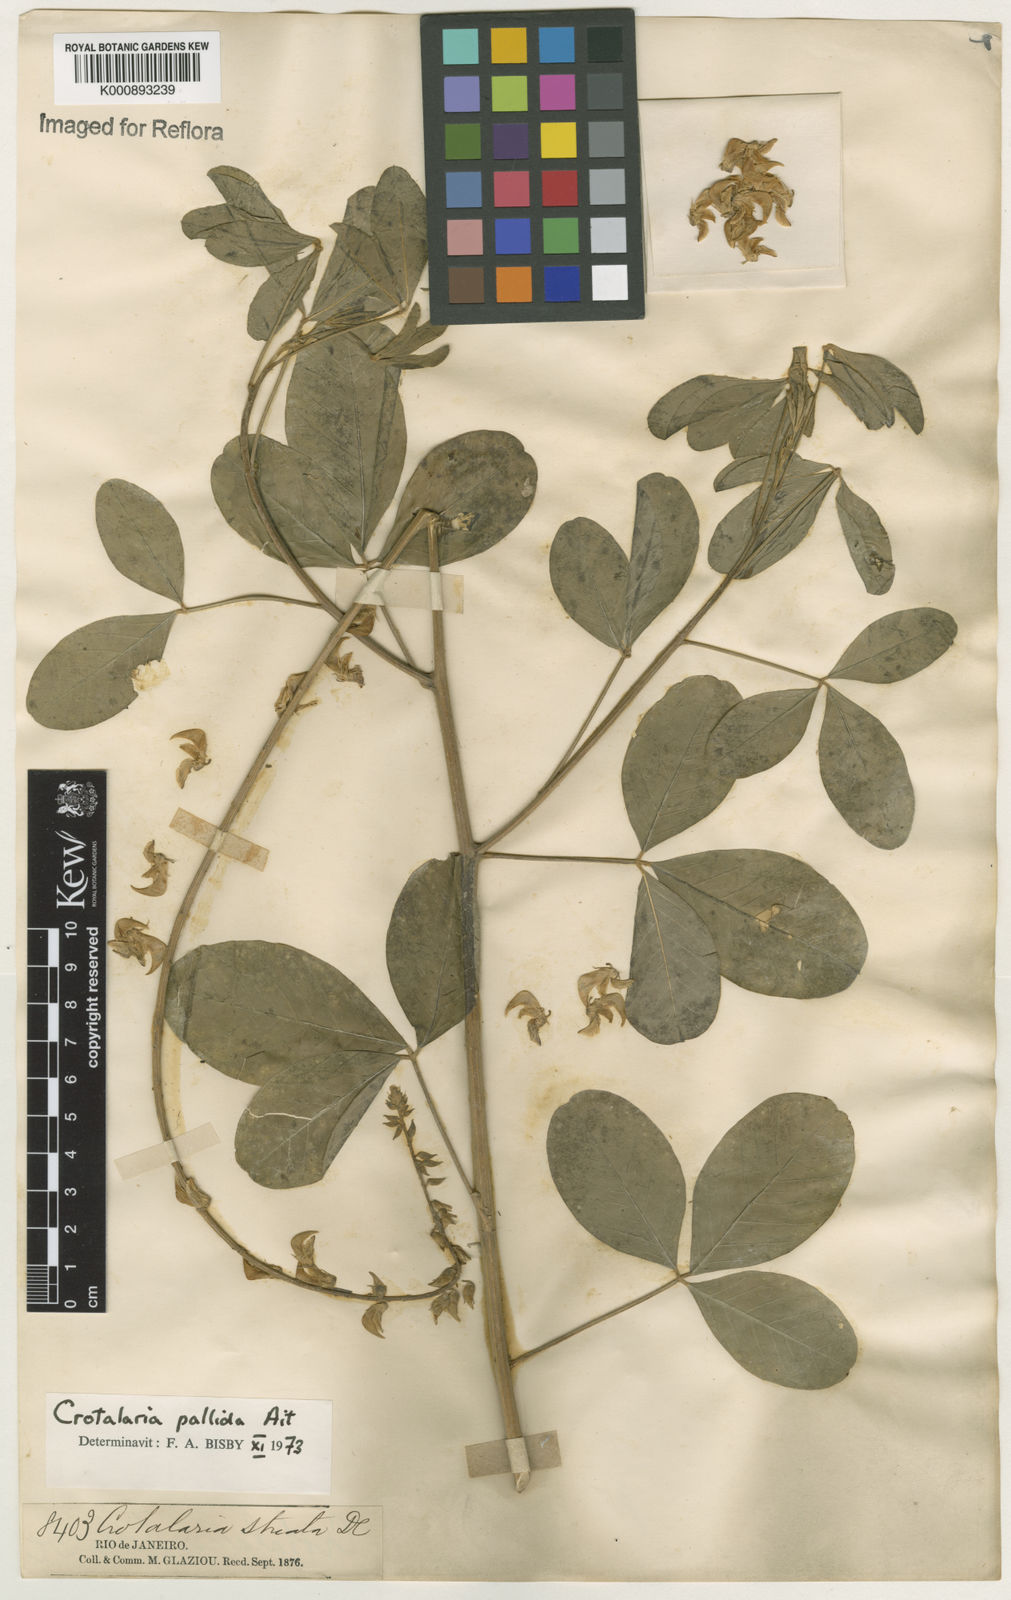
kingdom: Plantae
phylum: Tracheophyta
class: Magnoliopsida
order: Fabales
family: Fabaceae
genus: Crotalaria
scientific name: Crotalaria pallida
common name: Smooth rattlebox
